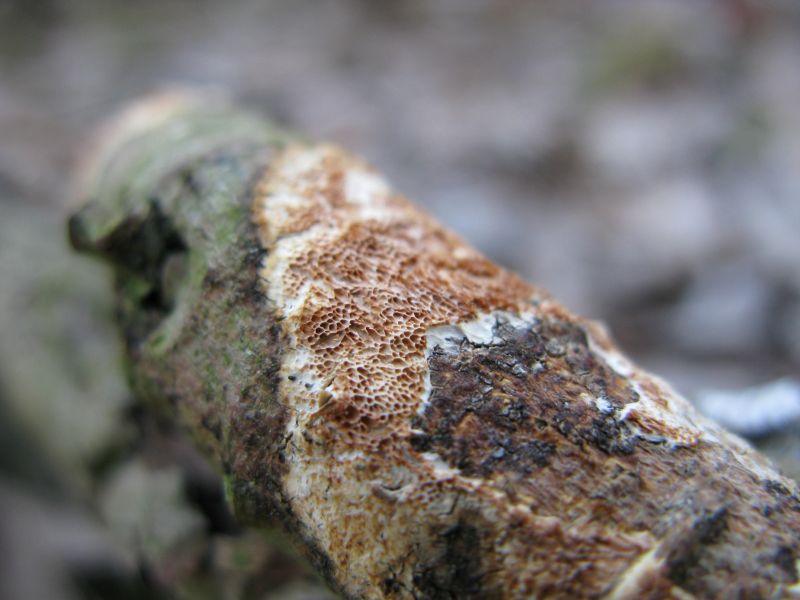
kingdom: Fungi
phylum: Basidiomycota
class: Agaricomycetes
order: Polyporales
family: Irpicaceae
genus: Resiniporus
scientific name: Resiniporus resinascens
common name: trist pastelporesvamp
